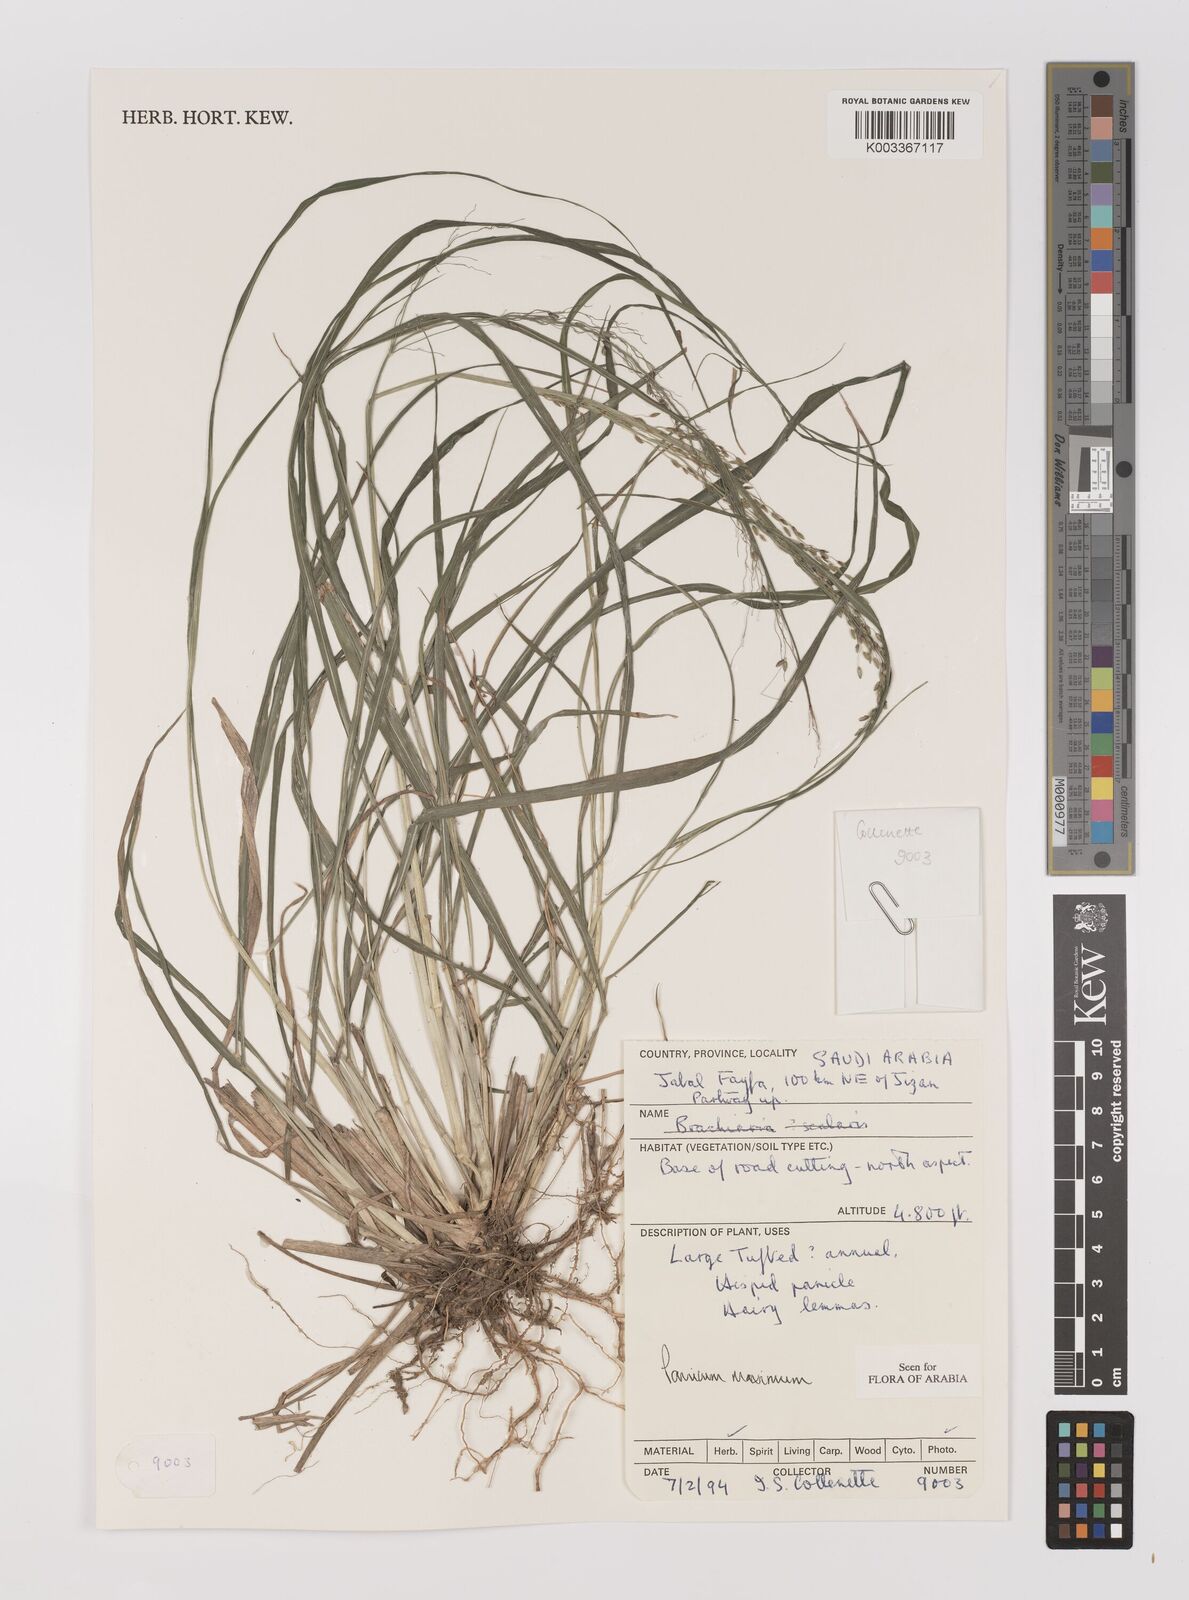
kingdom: Plantae
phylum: Tracheophyta
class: Liliopsida
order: Poales
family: Poaceae
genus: Megathyrsus
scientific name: Megathyrsus maximus
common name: Guineagrass
